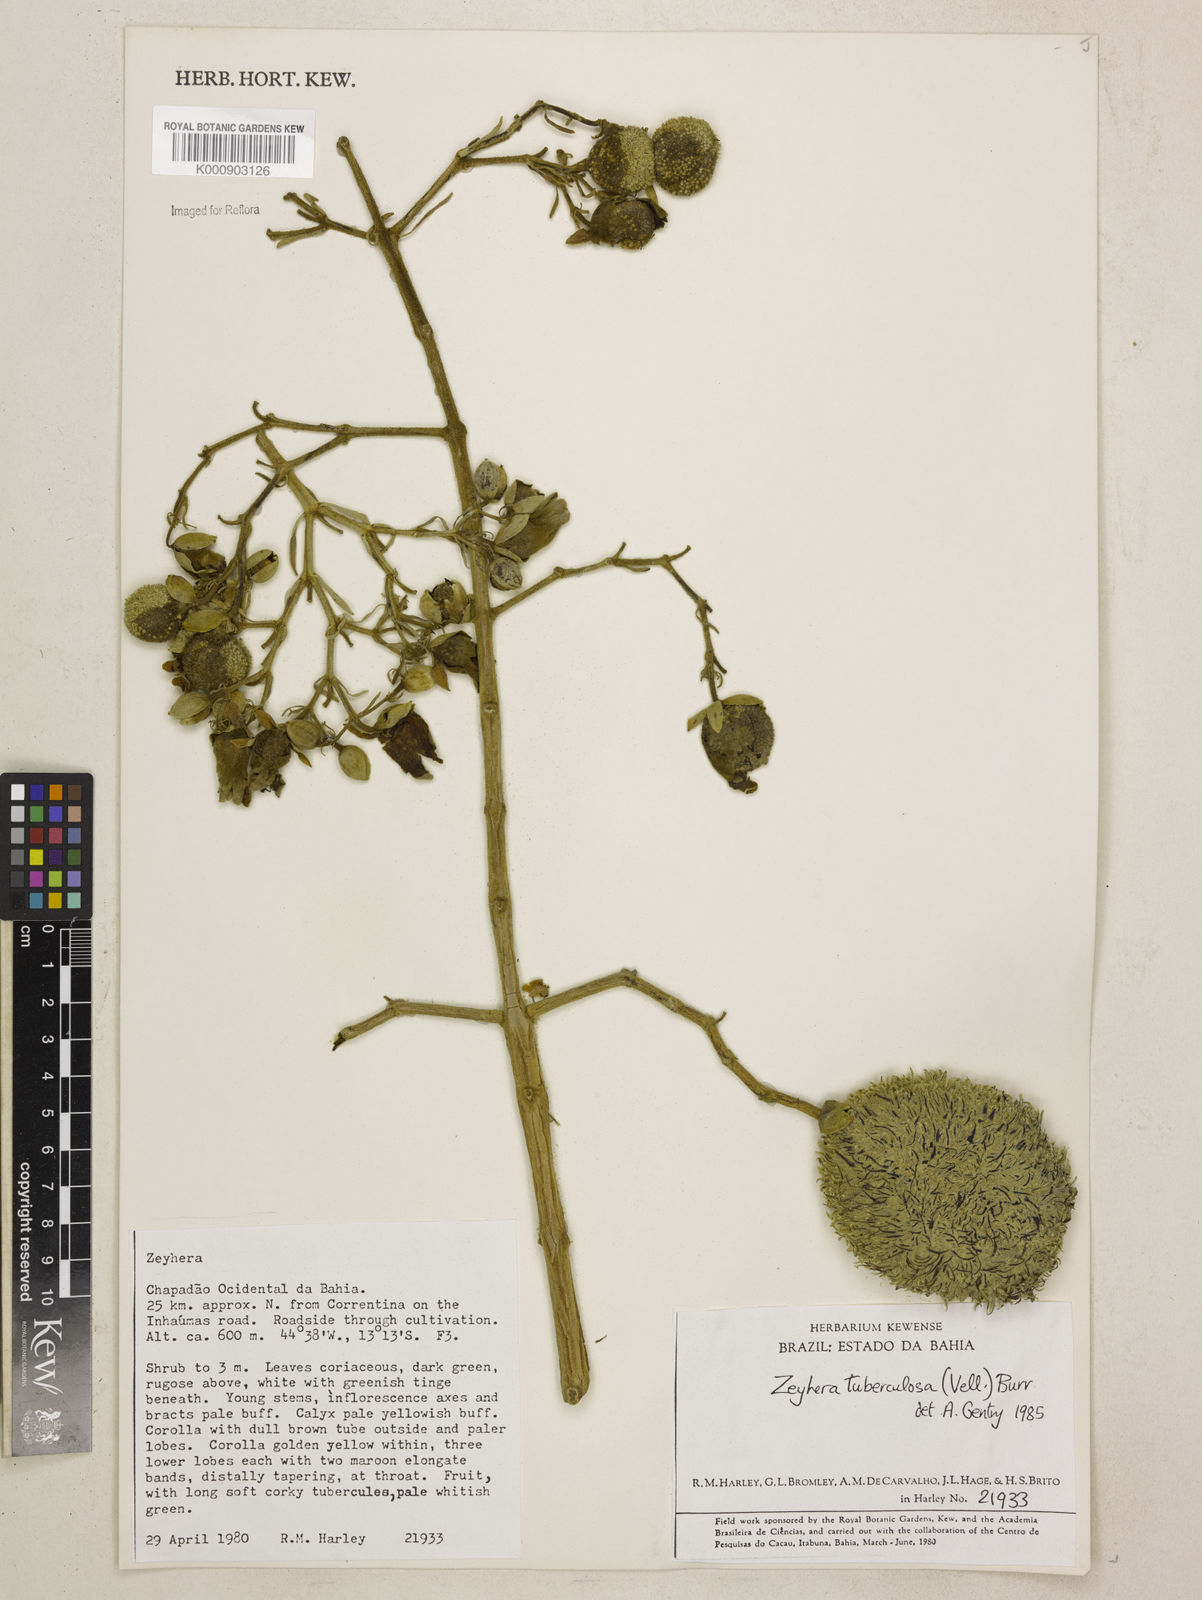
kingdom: Plantae
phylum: Tracheophyta
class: Magnoliopsida
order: Lamiales
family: Bignoniaceae
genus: Zeyheria
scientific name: Zeyheria
